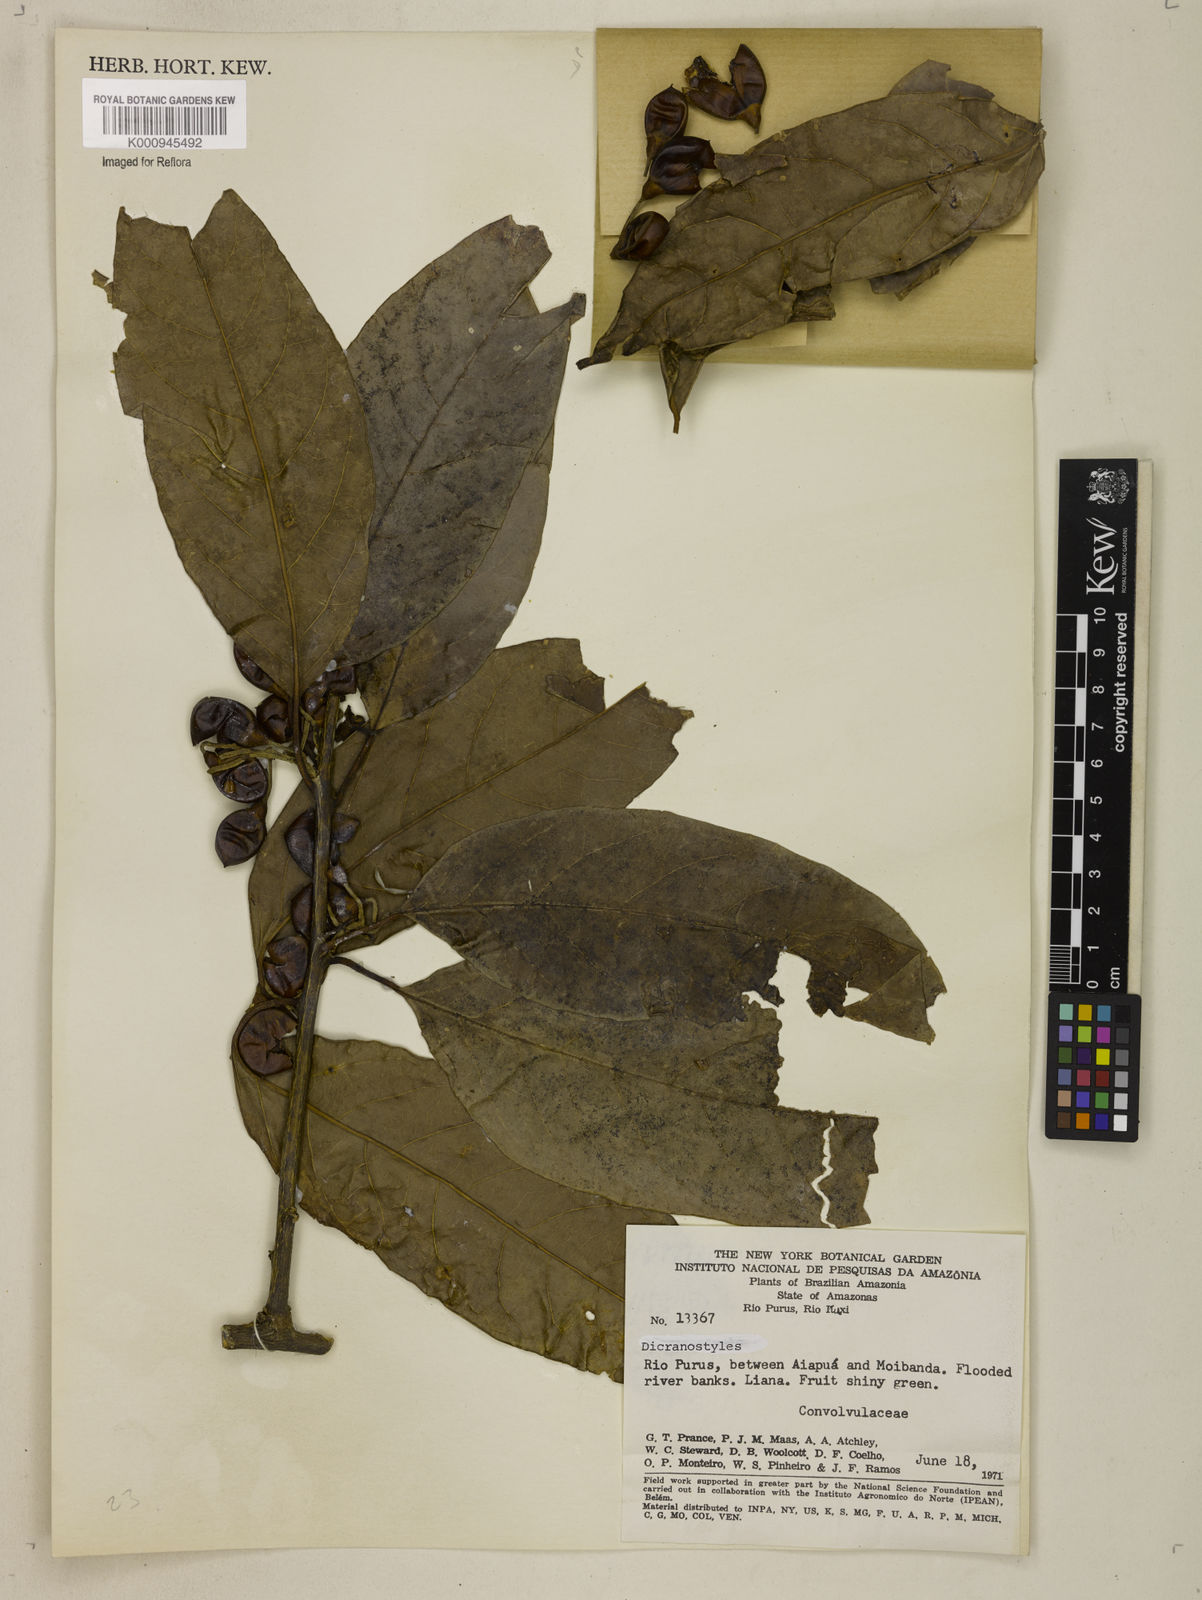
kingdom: Plantae
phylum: Tracheophyta
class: Magnoliopsida
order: Solanales
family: Convolvulaceae
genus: Dicranostyles
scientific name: Dicranostyles
